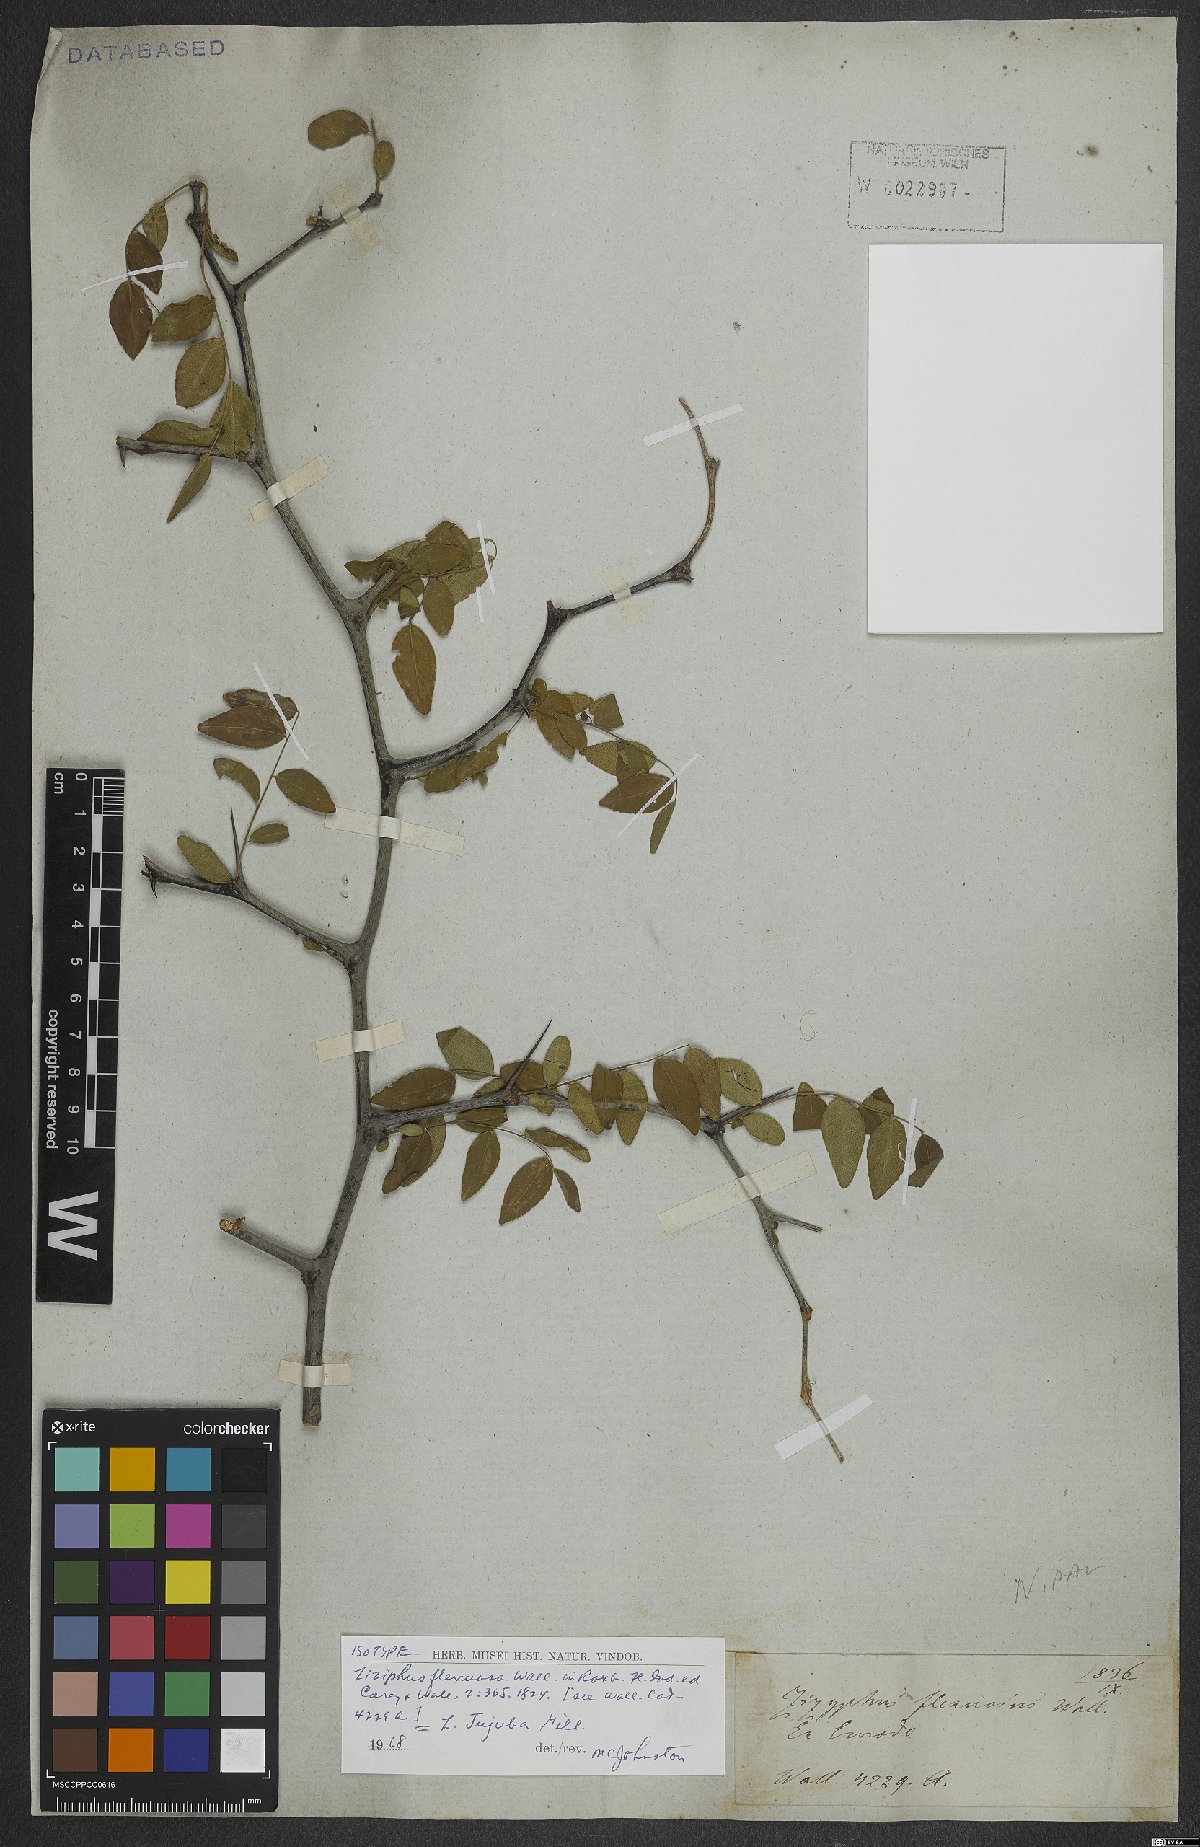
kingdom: Plantae
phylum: Tracheophyta
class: Magnoliopsida
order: Rosales
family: Rhamnaceae
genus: Ziziphus
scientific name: Ziziphus jujuba
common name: Jujube red date
